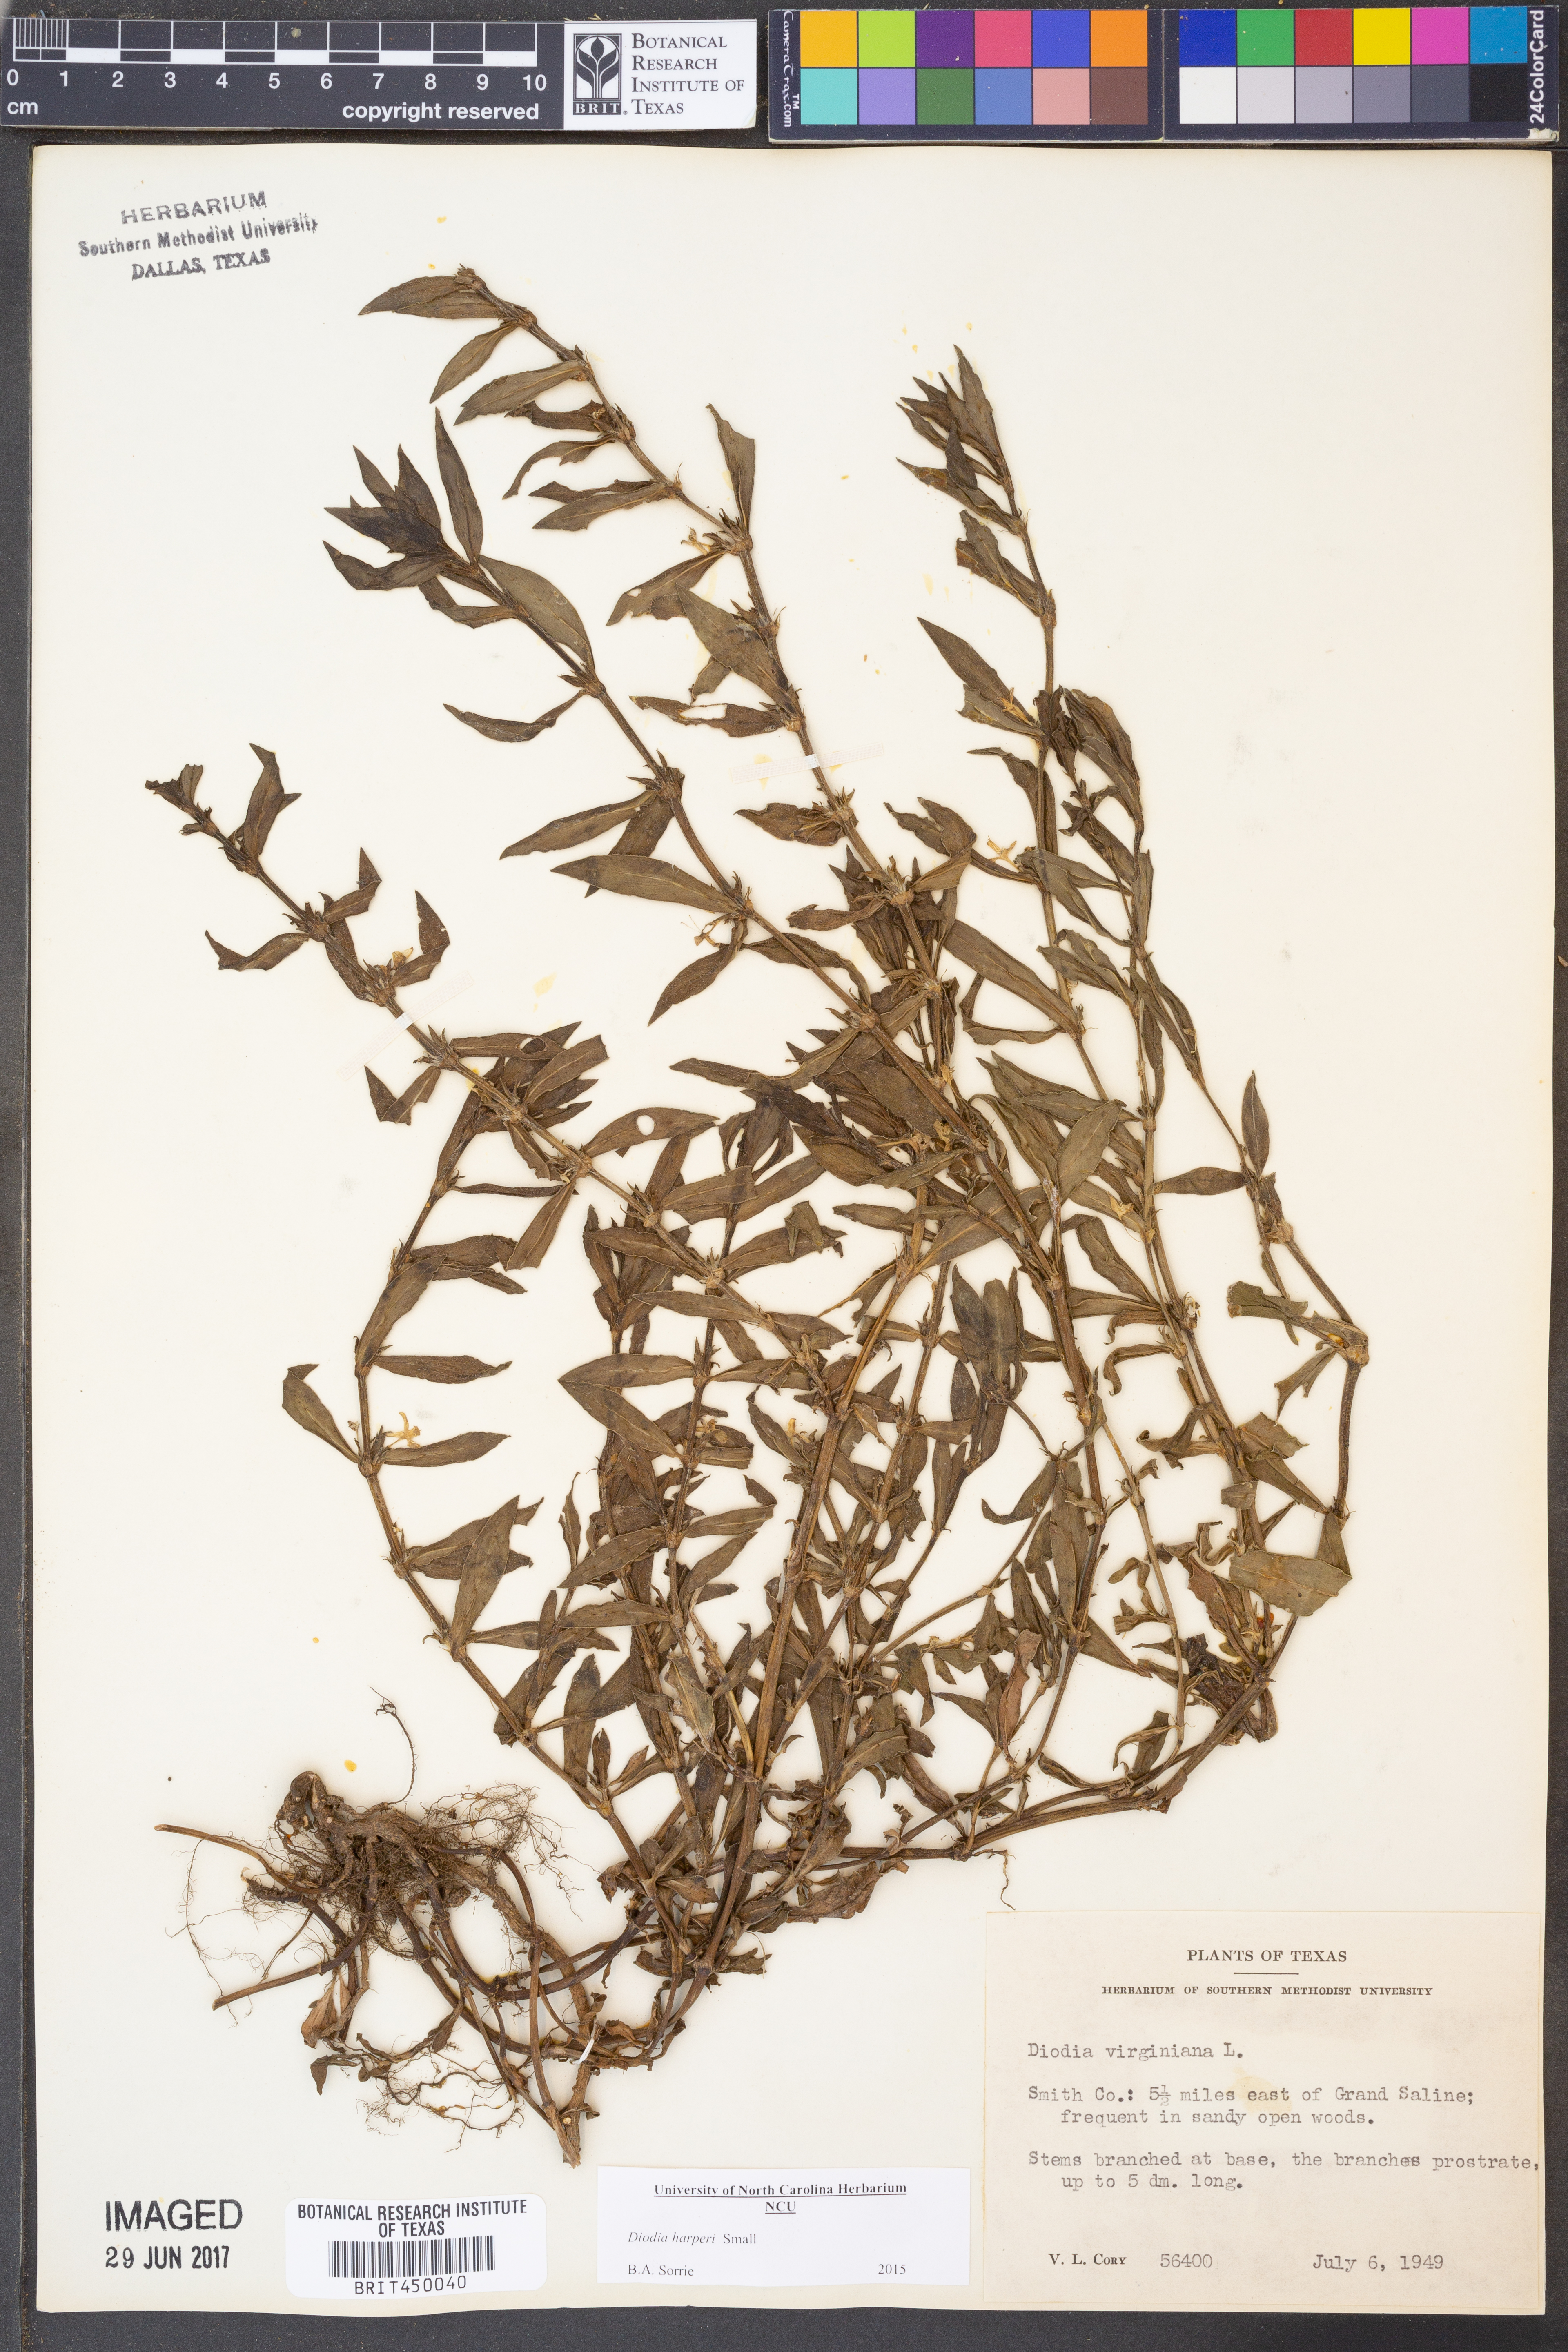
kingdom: Plantae
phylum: Tracheophyta
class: Magnoliopsida
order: Gentianales
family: Rubiaceae
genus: Diodia
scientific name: Diodia virginiana
